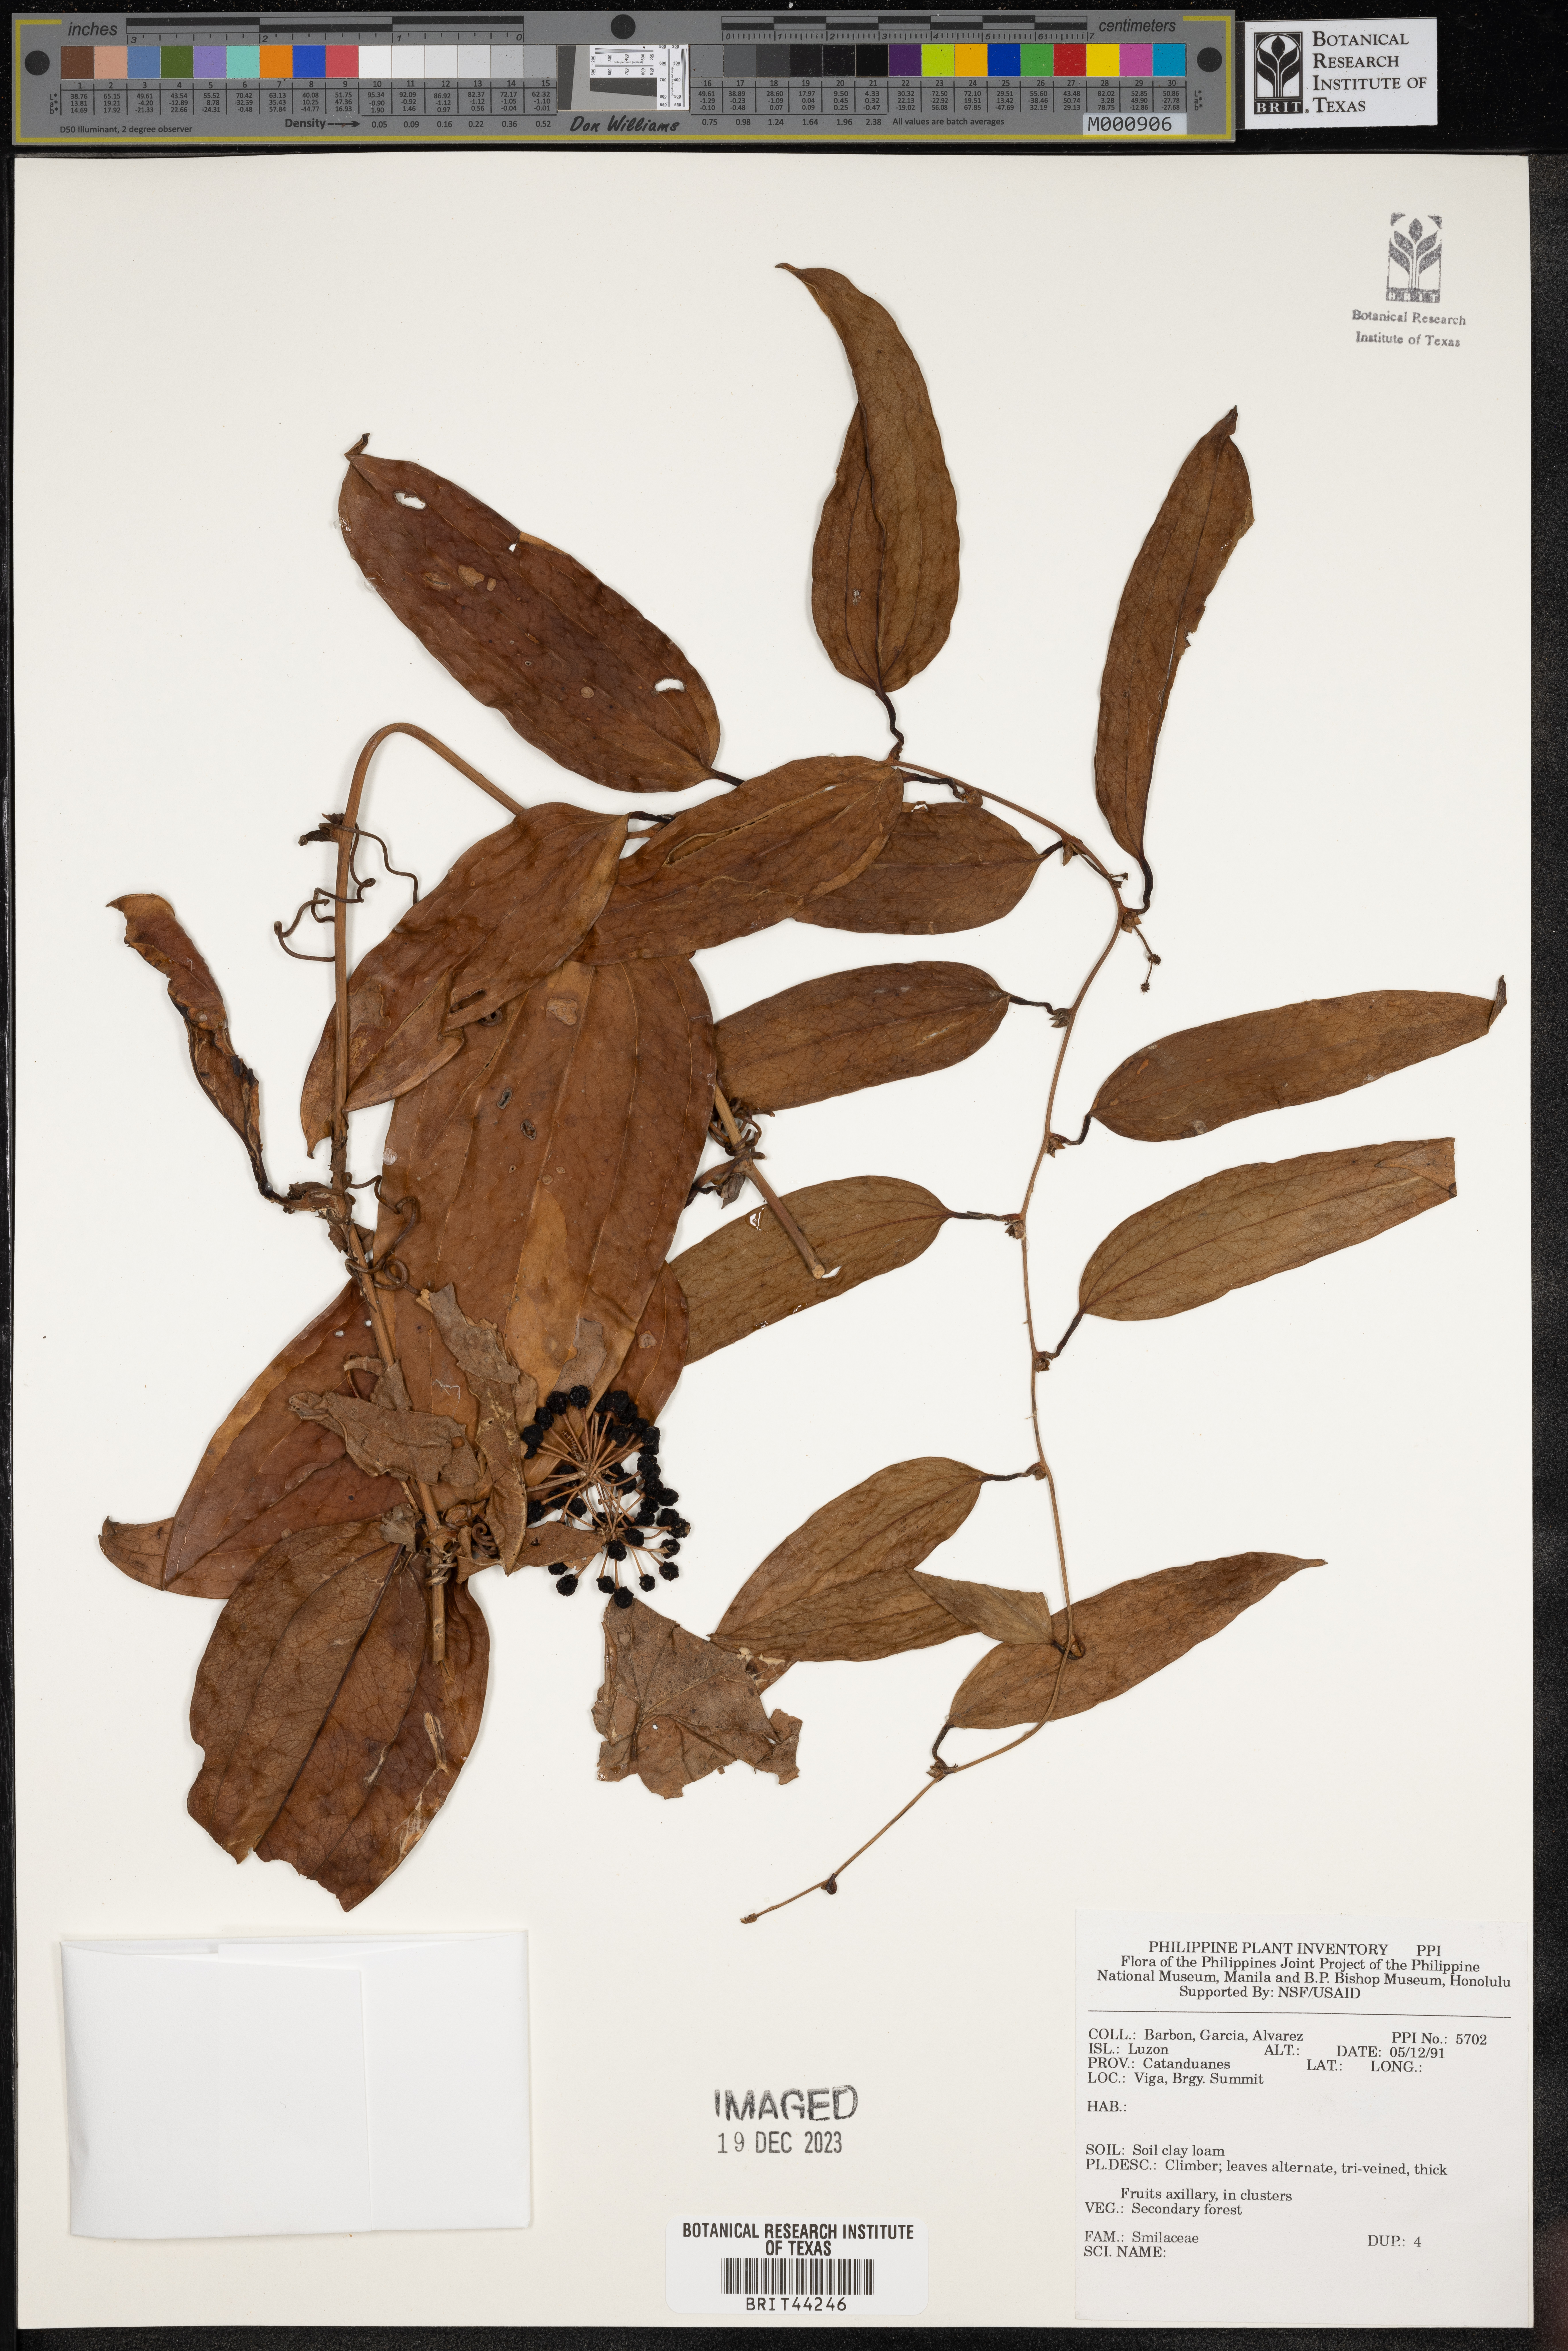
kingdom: Plantae
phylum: Tracheophyta
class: Liliopsida
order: Liliales
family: Smilacaceae
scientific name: Smilacaceae
